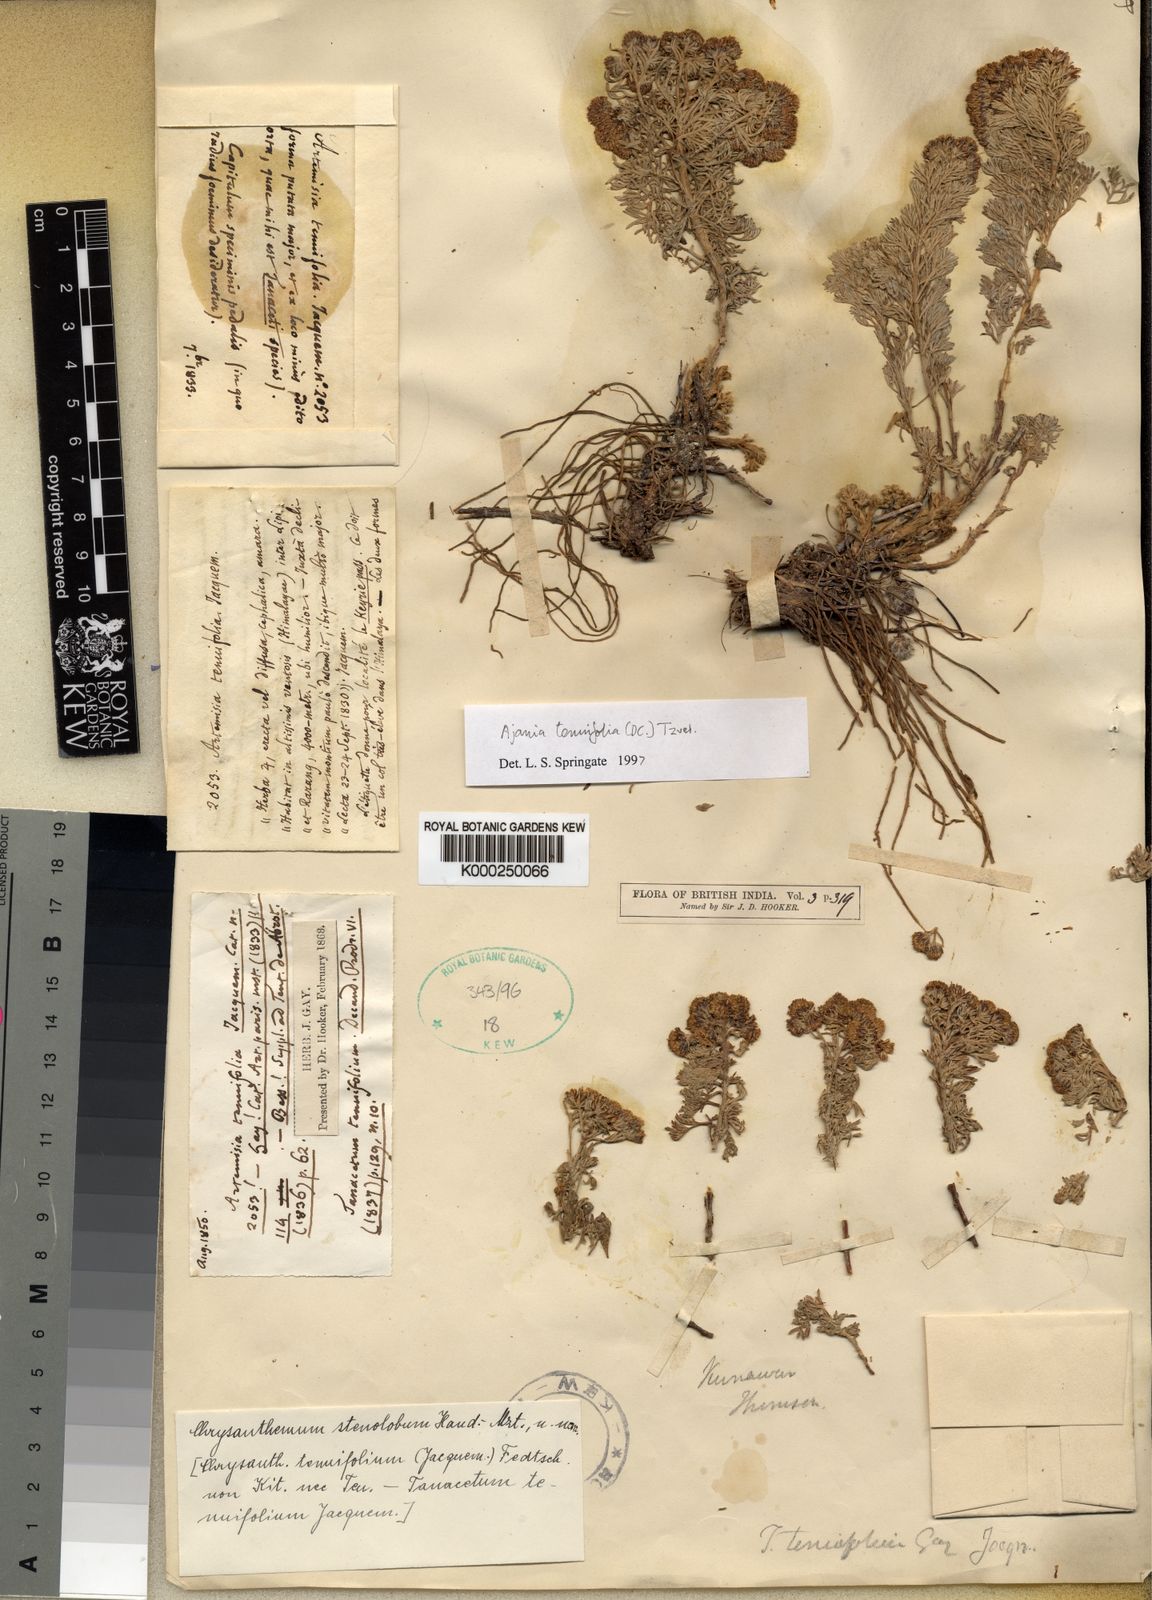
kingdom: Plantae
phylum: Tracheophyta
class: Magnoliopsida
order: Asterales
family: Asteraceae
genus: Ajania
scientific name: Ajania tenuifolia
